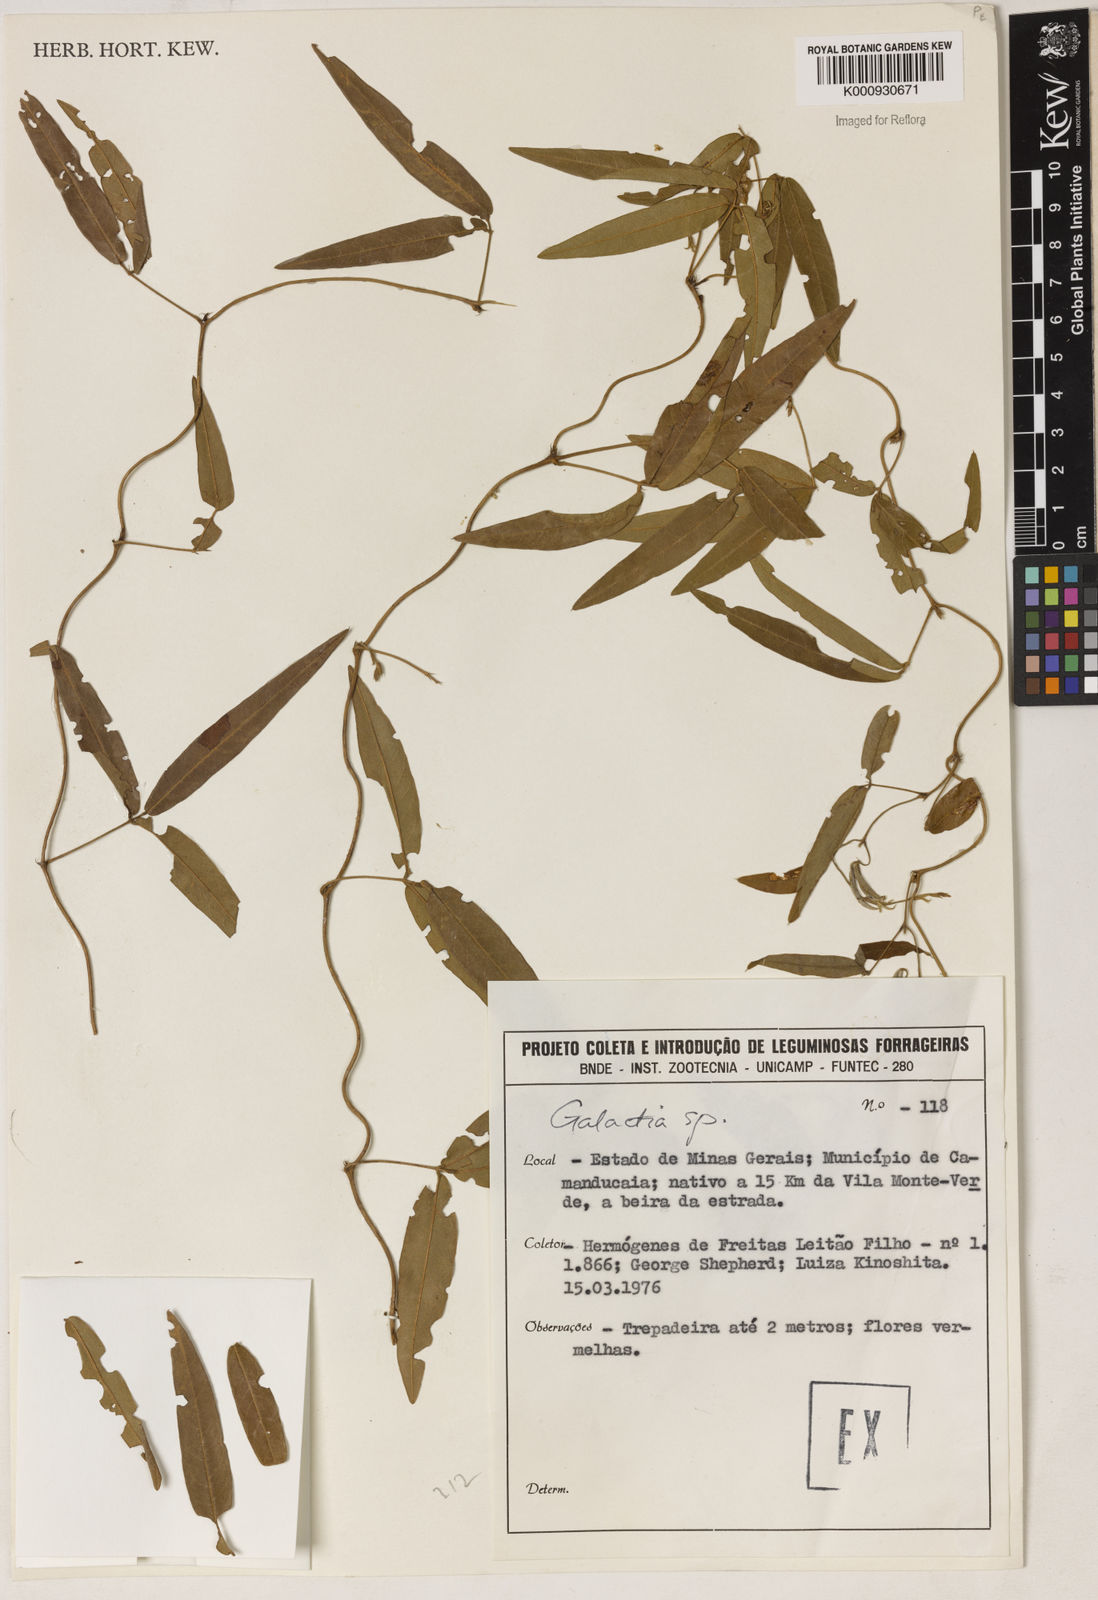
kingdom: Plantae
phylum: Tracheophyta
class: Magnoliopsida
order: Fabales
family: Fabaceae
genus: Galactia
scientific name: Galactia
